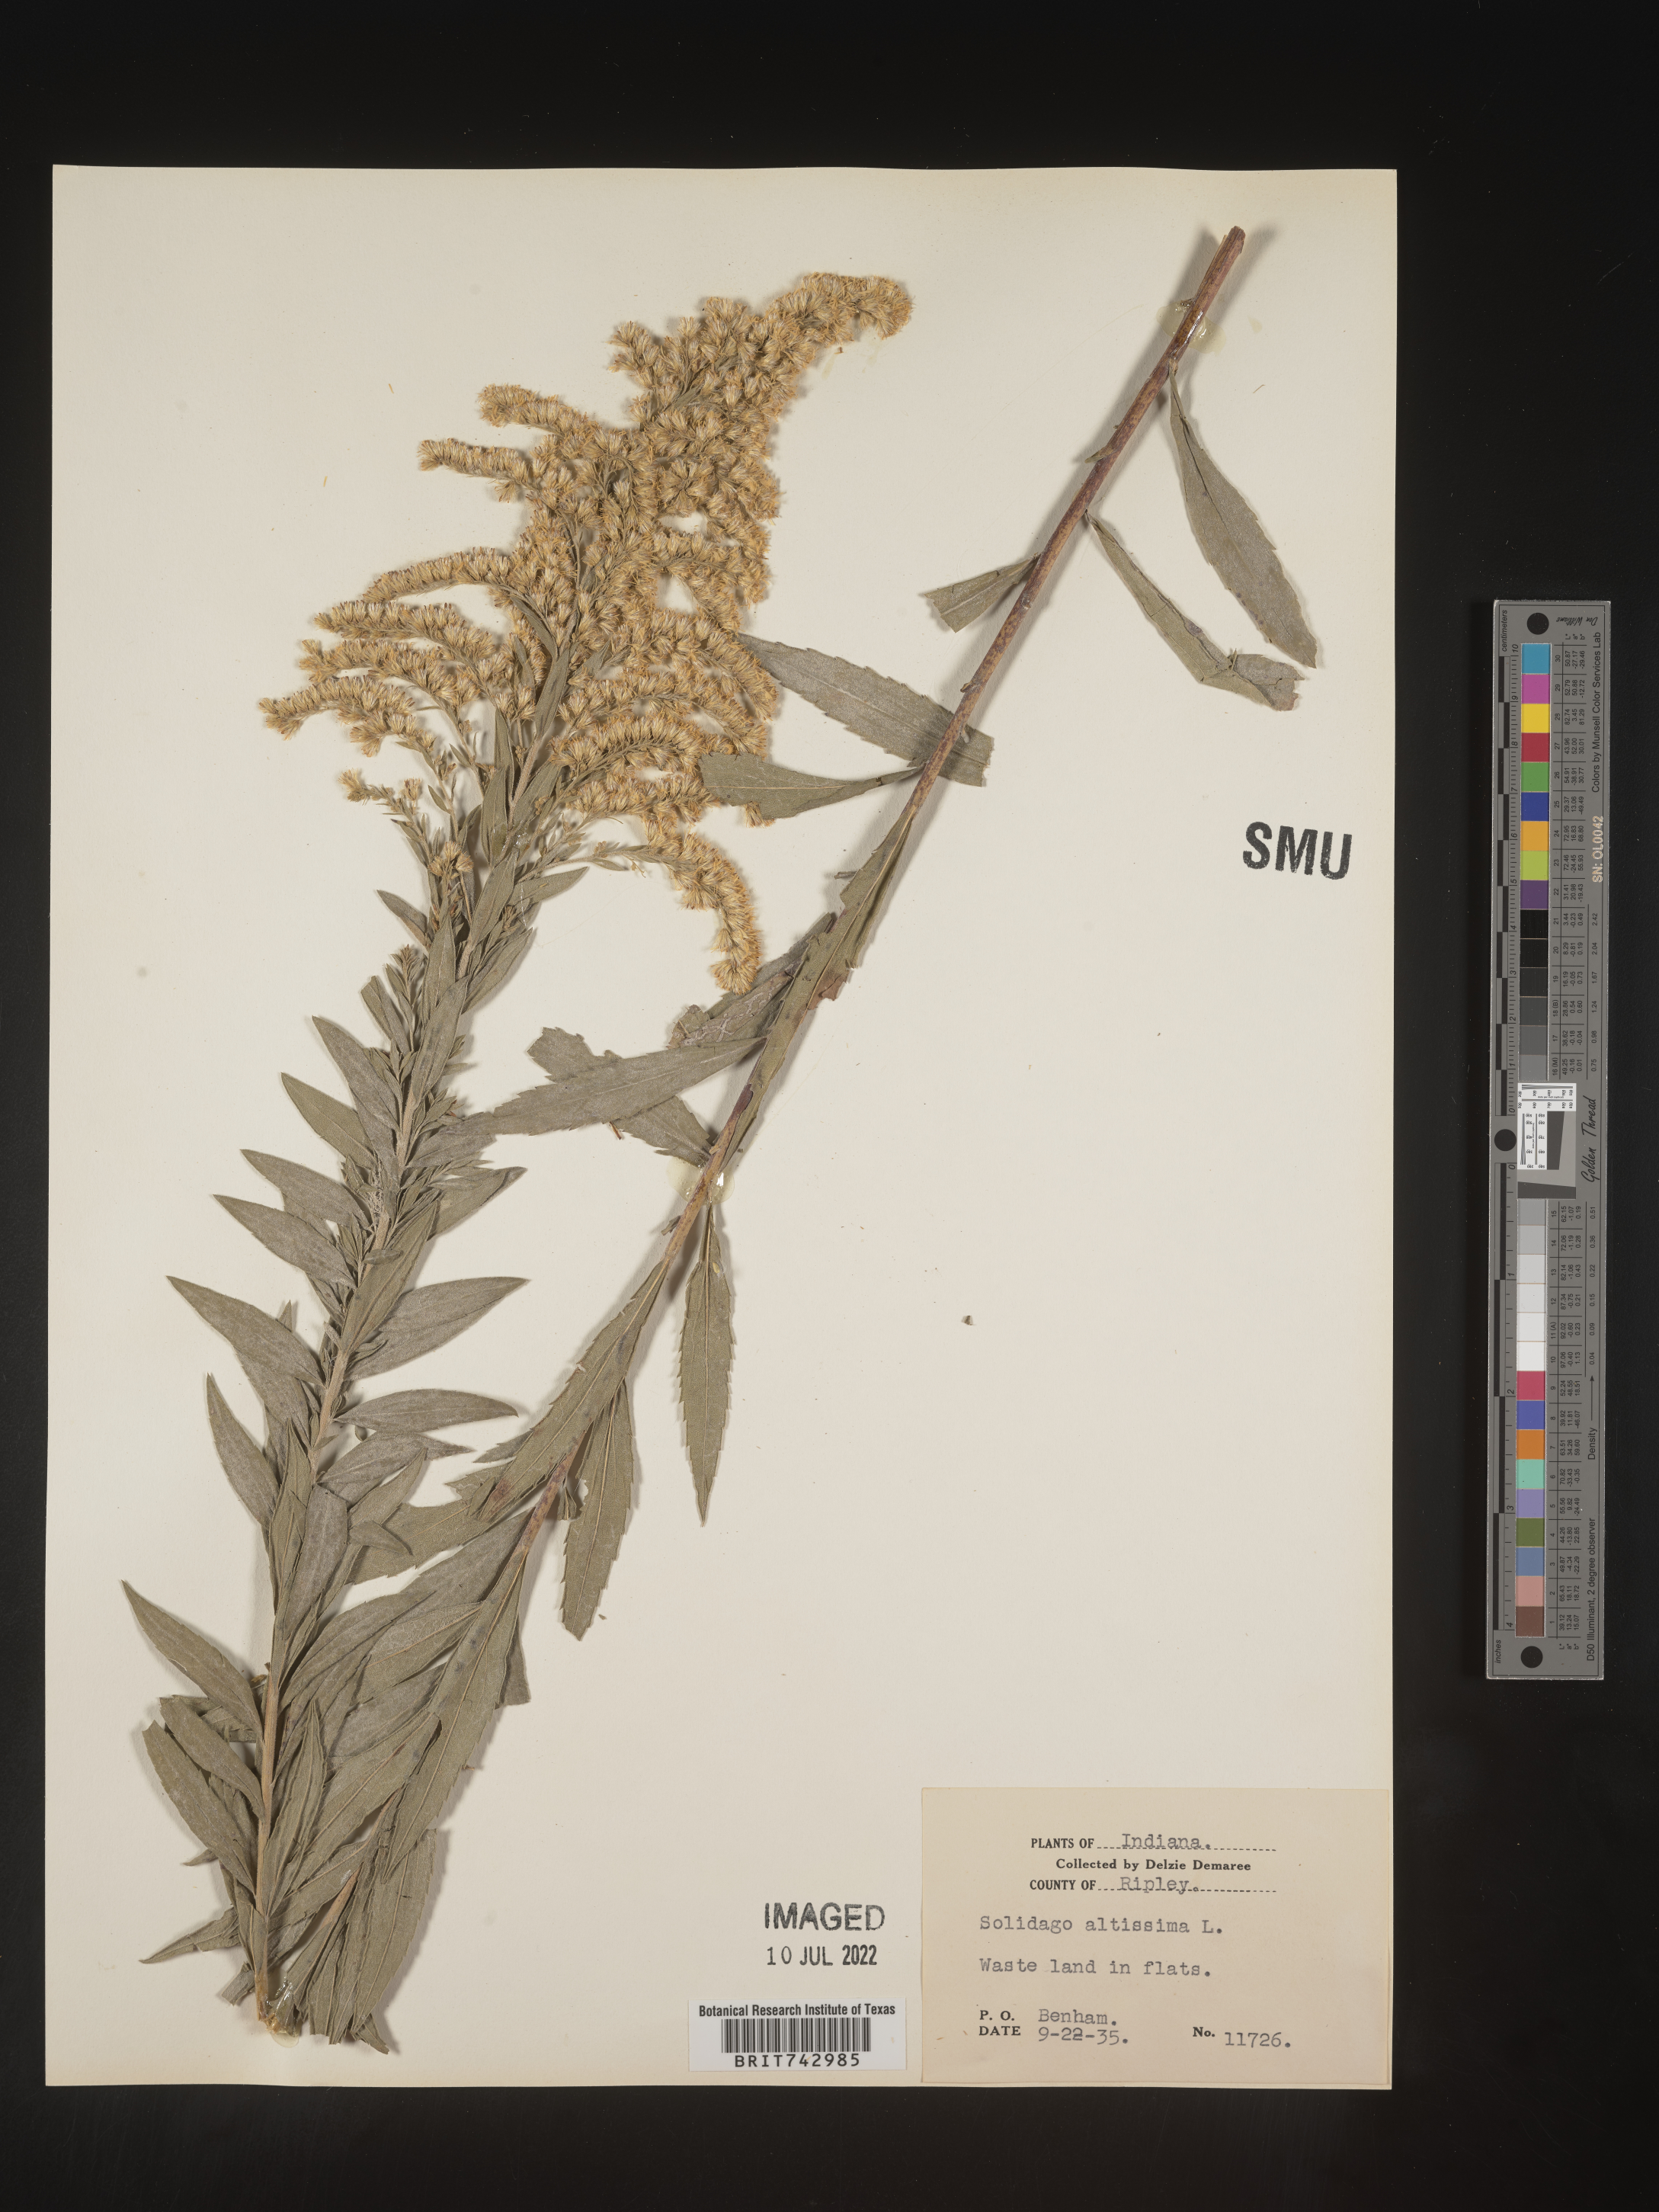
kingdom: Plantae
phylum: Tracheophyta
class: Magnoliopsida
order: Asterales
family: Asteraceae
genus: Solidago
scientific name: Solidago altissima
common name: Late goldenrod
